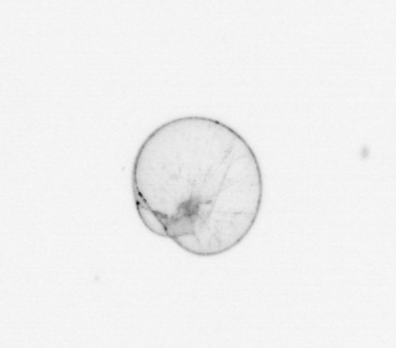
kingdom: Chromista
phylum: Myzozoa
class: Dinophyceae
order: Noctilucales
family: Noctilucaceae
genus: Noctiluca
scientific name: Noctiluca scintillans
